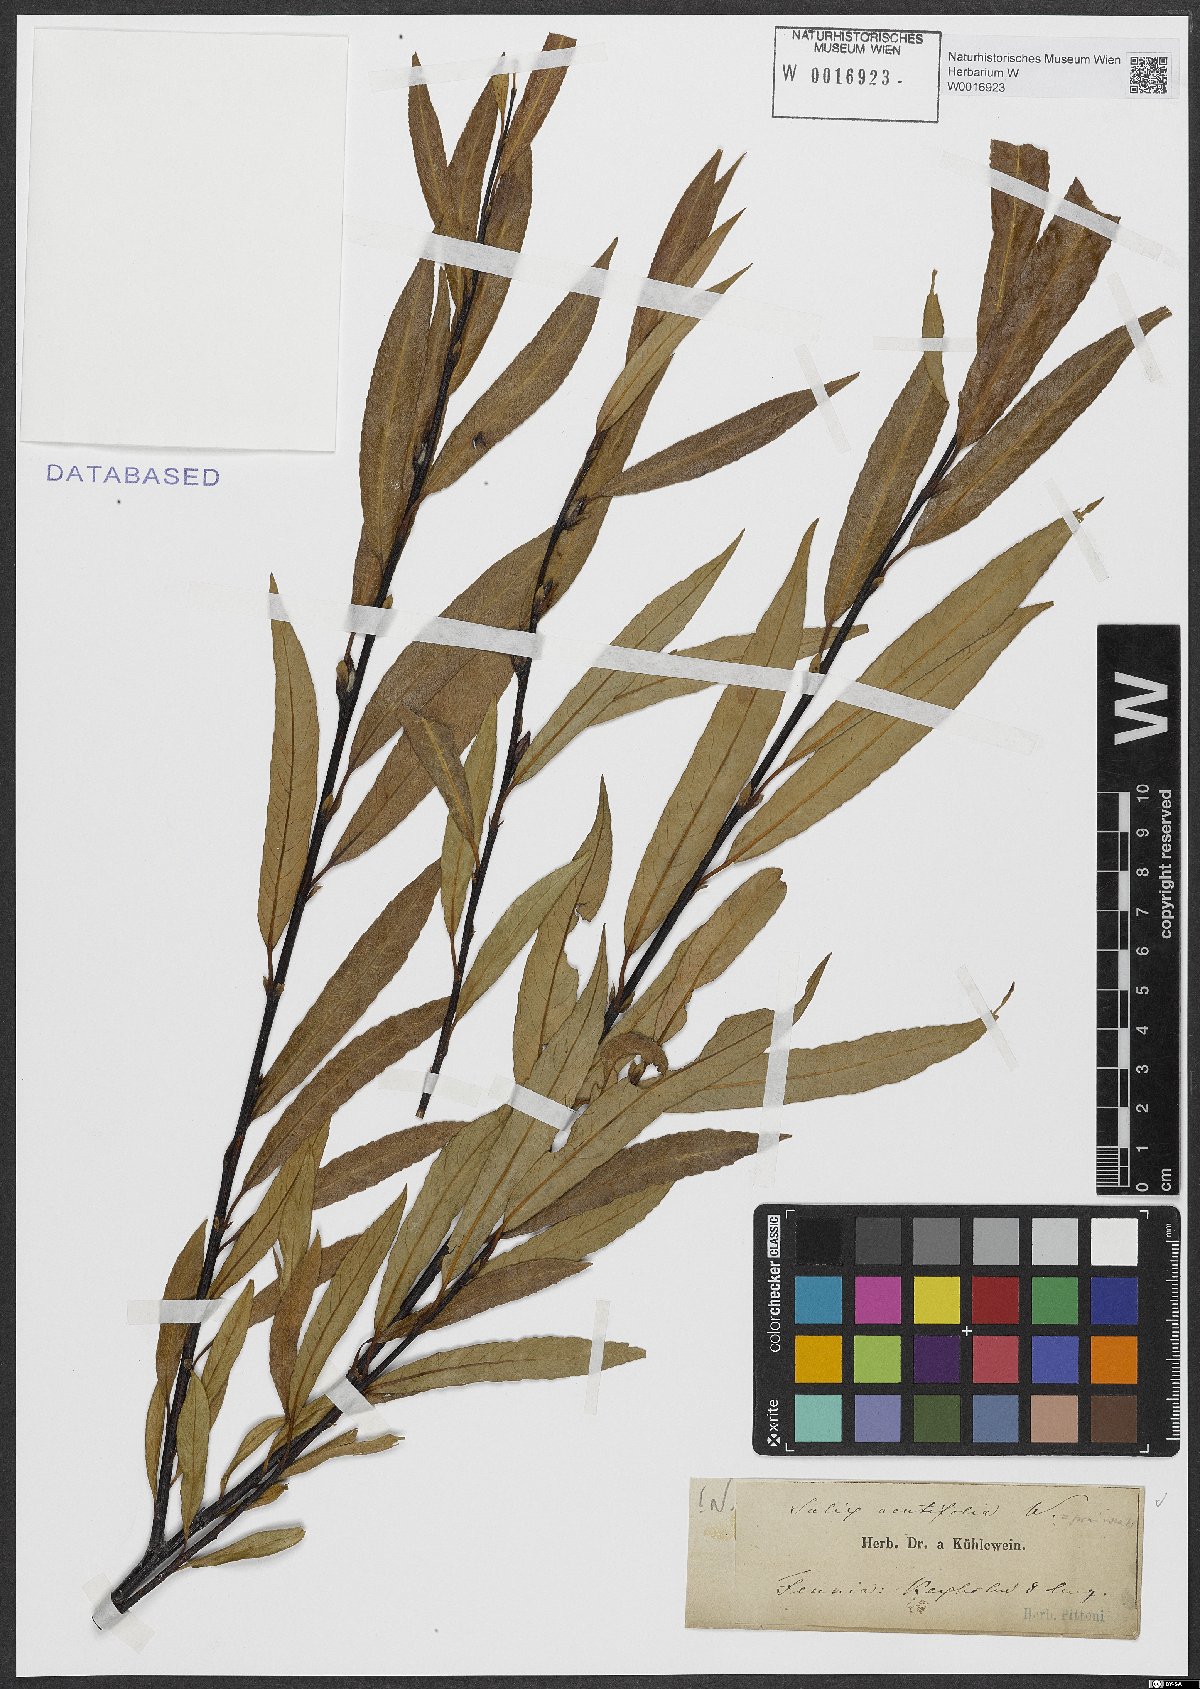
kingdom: Plantae
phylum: Tracheophyta
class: Magnoliopsida
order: Malpighiales
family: Salicaceae
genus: Salix
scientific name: Salix acutifolia
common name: Siberian violet-willow
